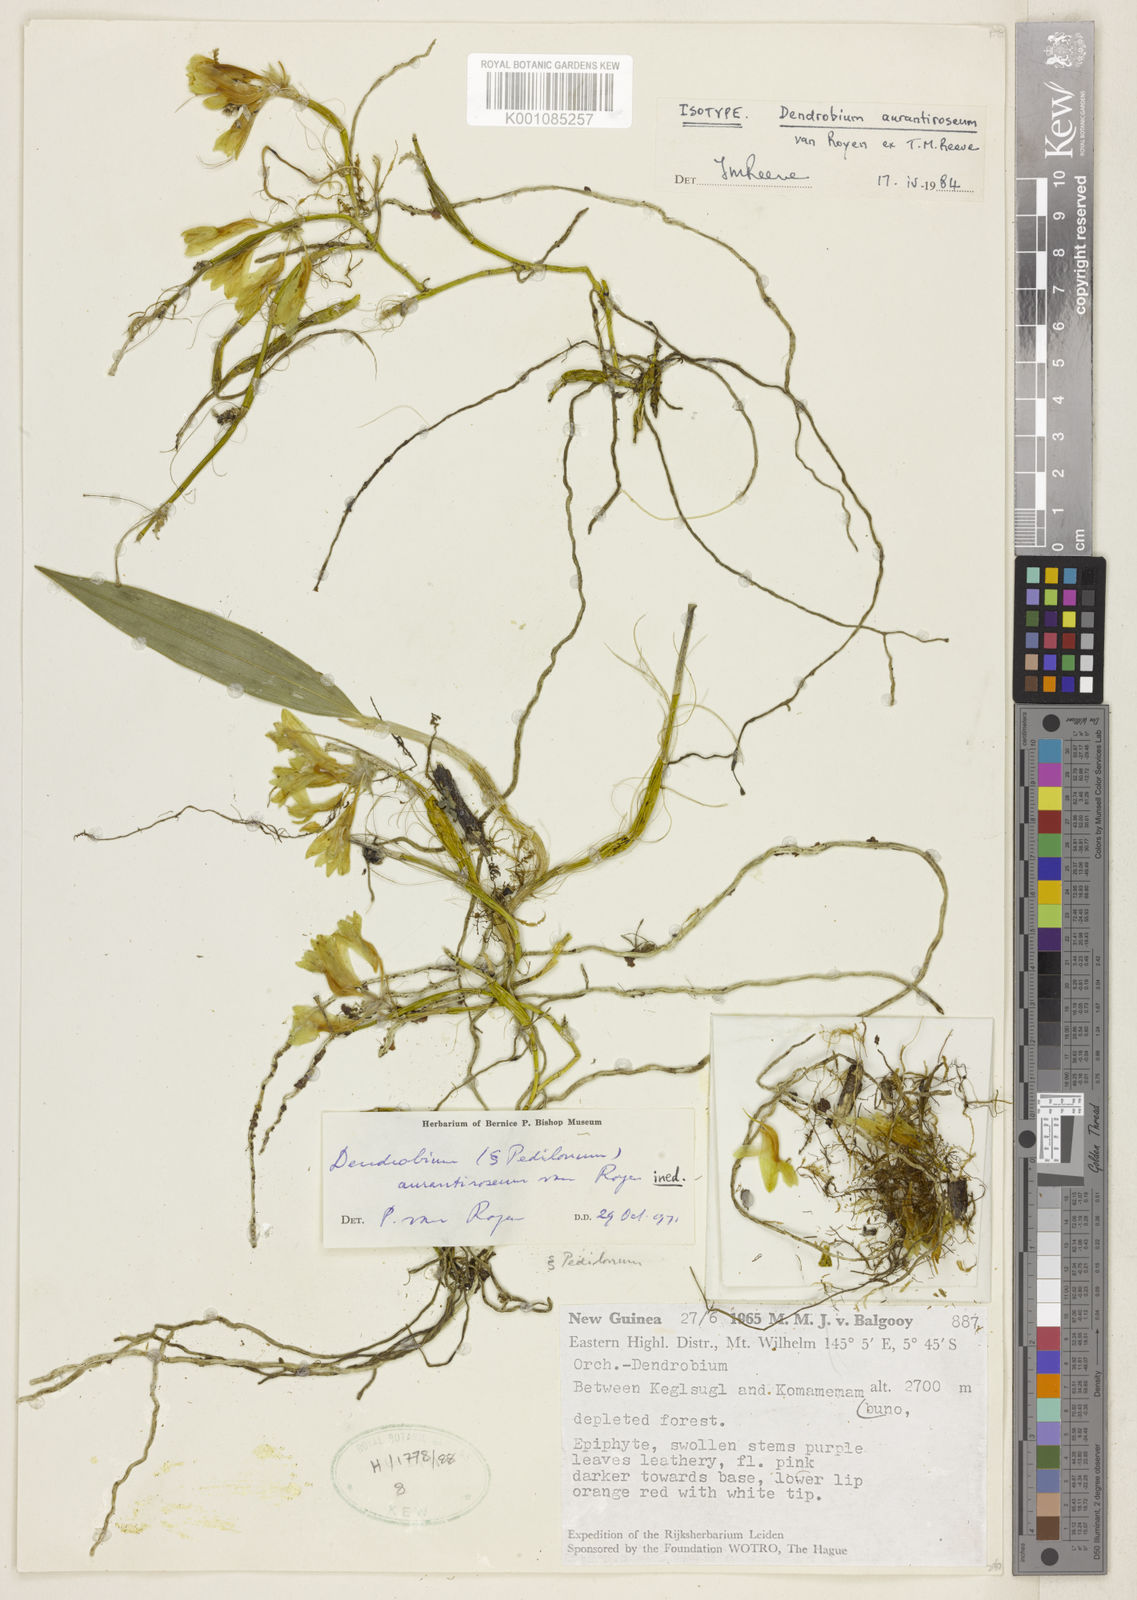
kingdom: Plantae
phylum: Tracheophyta
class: Liliopsida
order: Asparagales
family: Orchidaceae
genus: Dendrobium
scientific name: Dendrobium aurantiiroseum
